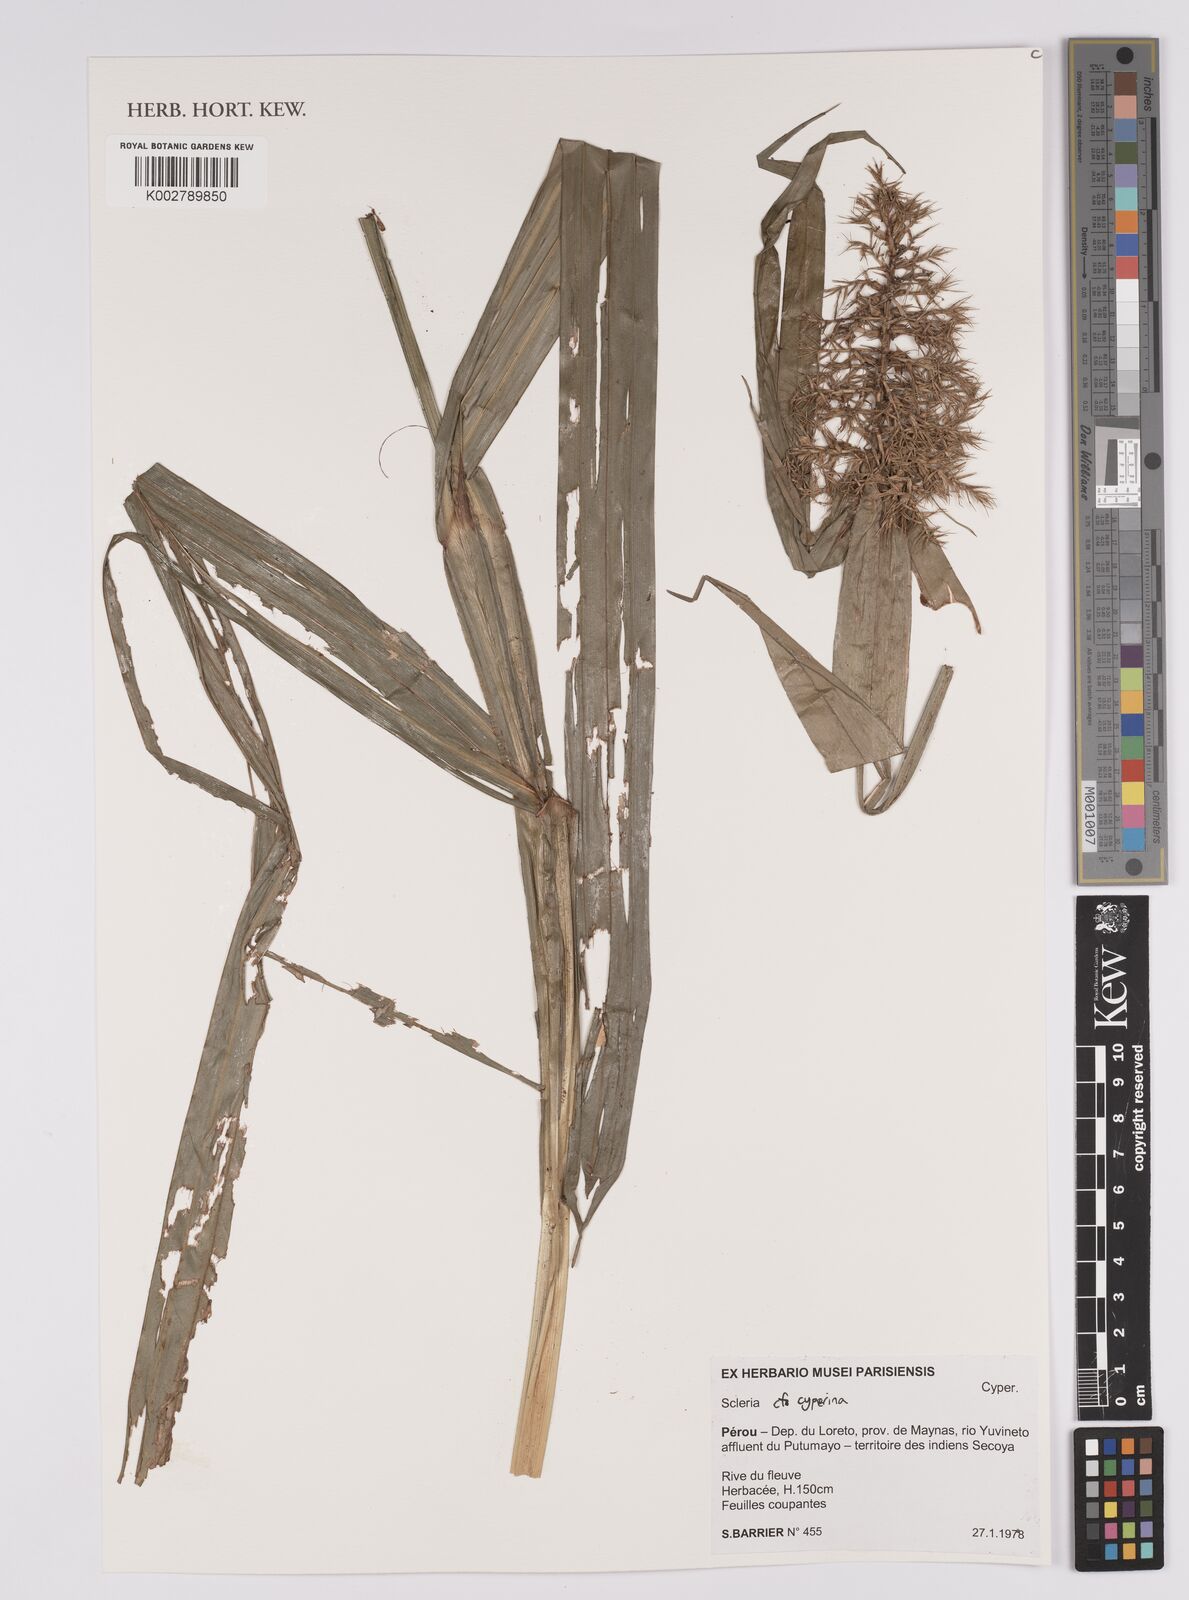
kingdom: Plantae
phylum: Tracheophyta
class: Liliopsida
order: Poales
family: Cyperaceae
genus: Scleria
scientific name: Scleria cyperina
